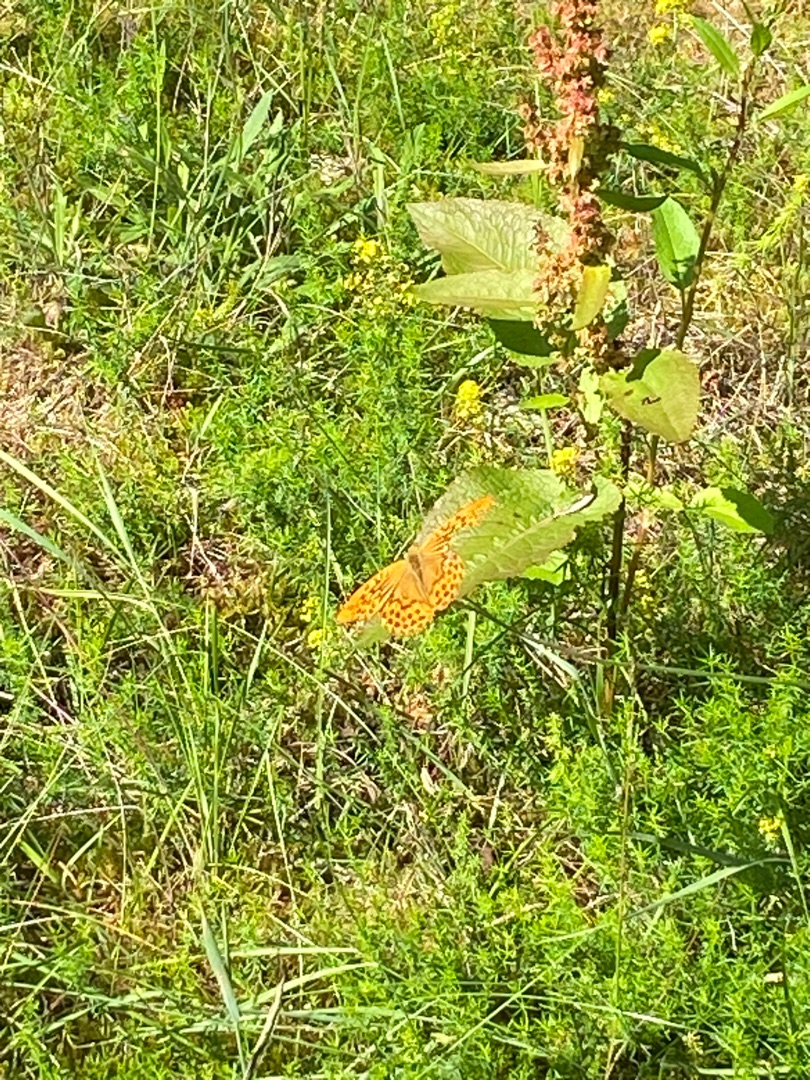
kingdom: Animalia
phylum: Arthropoda
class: Insecta
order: Lepidoptera
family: Nymphalidae
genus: Argynnis
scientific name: Argynnis paphia
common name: Kejserkåbe
